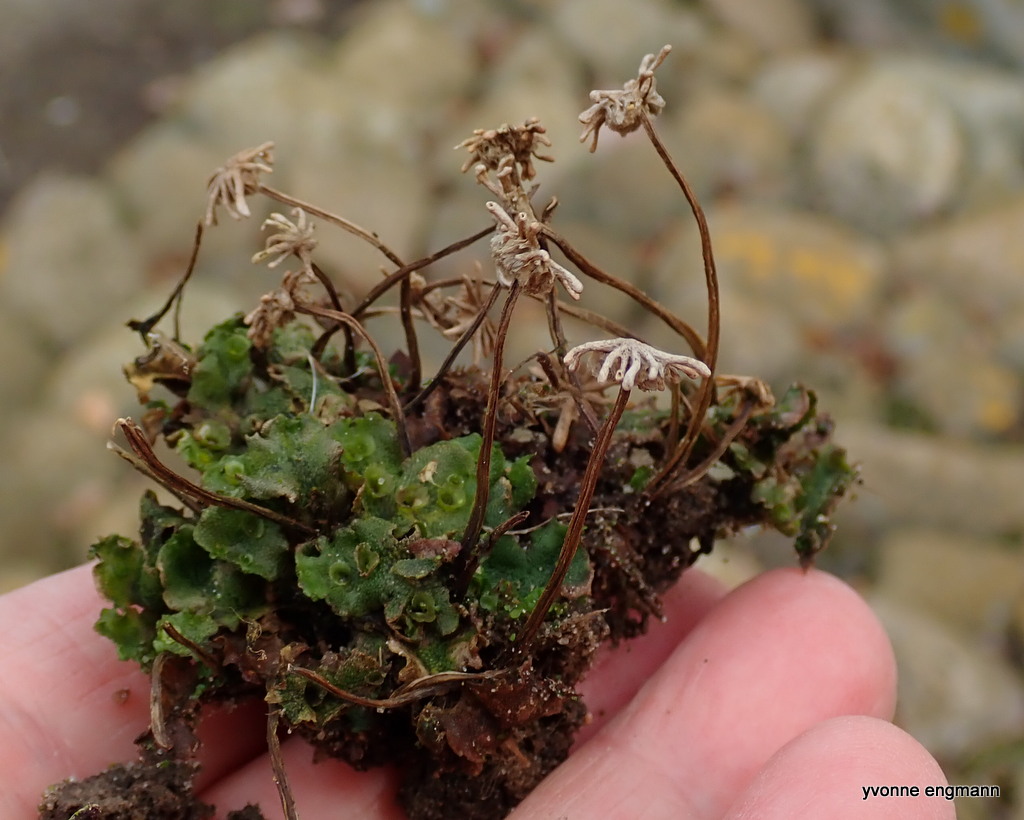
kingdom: Plantae
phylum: Marchantiophyta
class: Marchantiopsida
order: Marchantiales
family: Marchantiaceae
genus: Marchantia
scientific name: Marchantia polymorpha
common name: Almindelig lungemos (underart)
